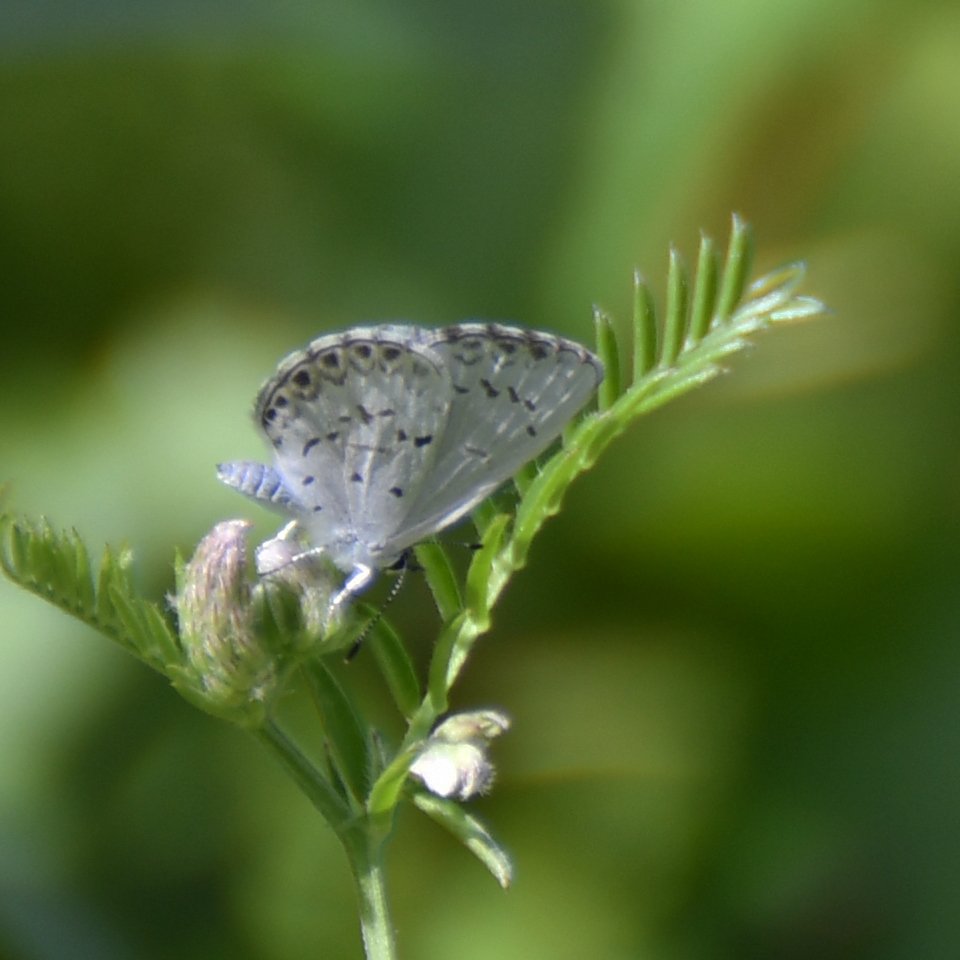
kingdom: Animalia
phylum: Arthropoda
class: Insecta
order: Lepidoptera
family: Lycaenidae
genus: Celastrina
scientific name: Celastrina lucia
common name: Northern Spring Azure
